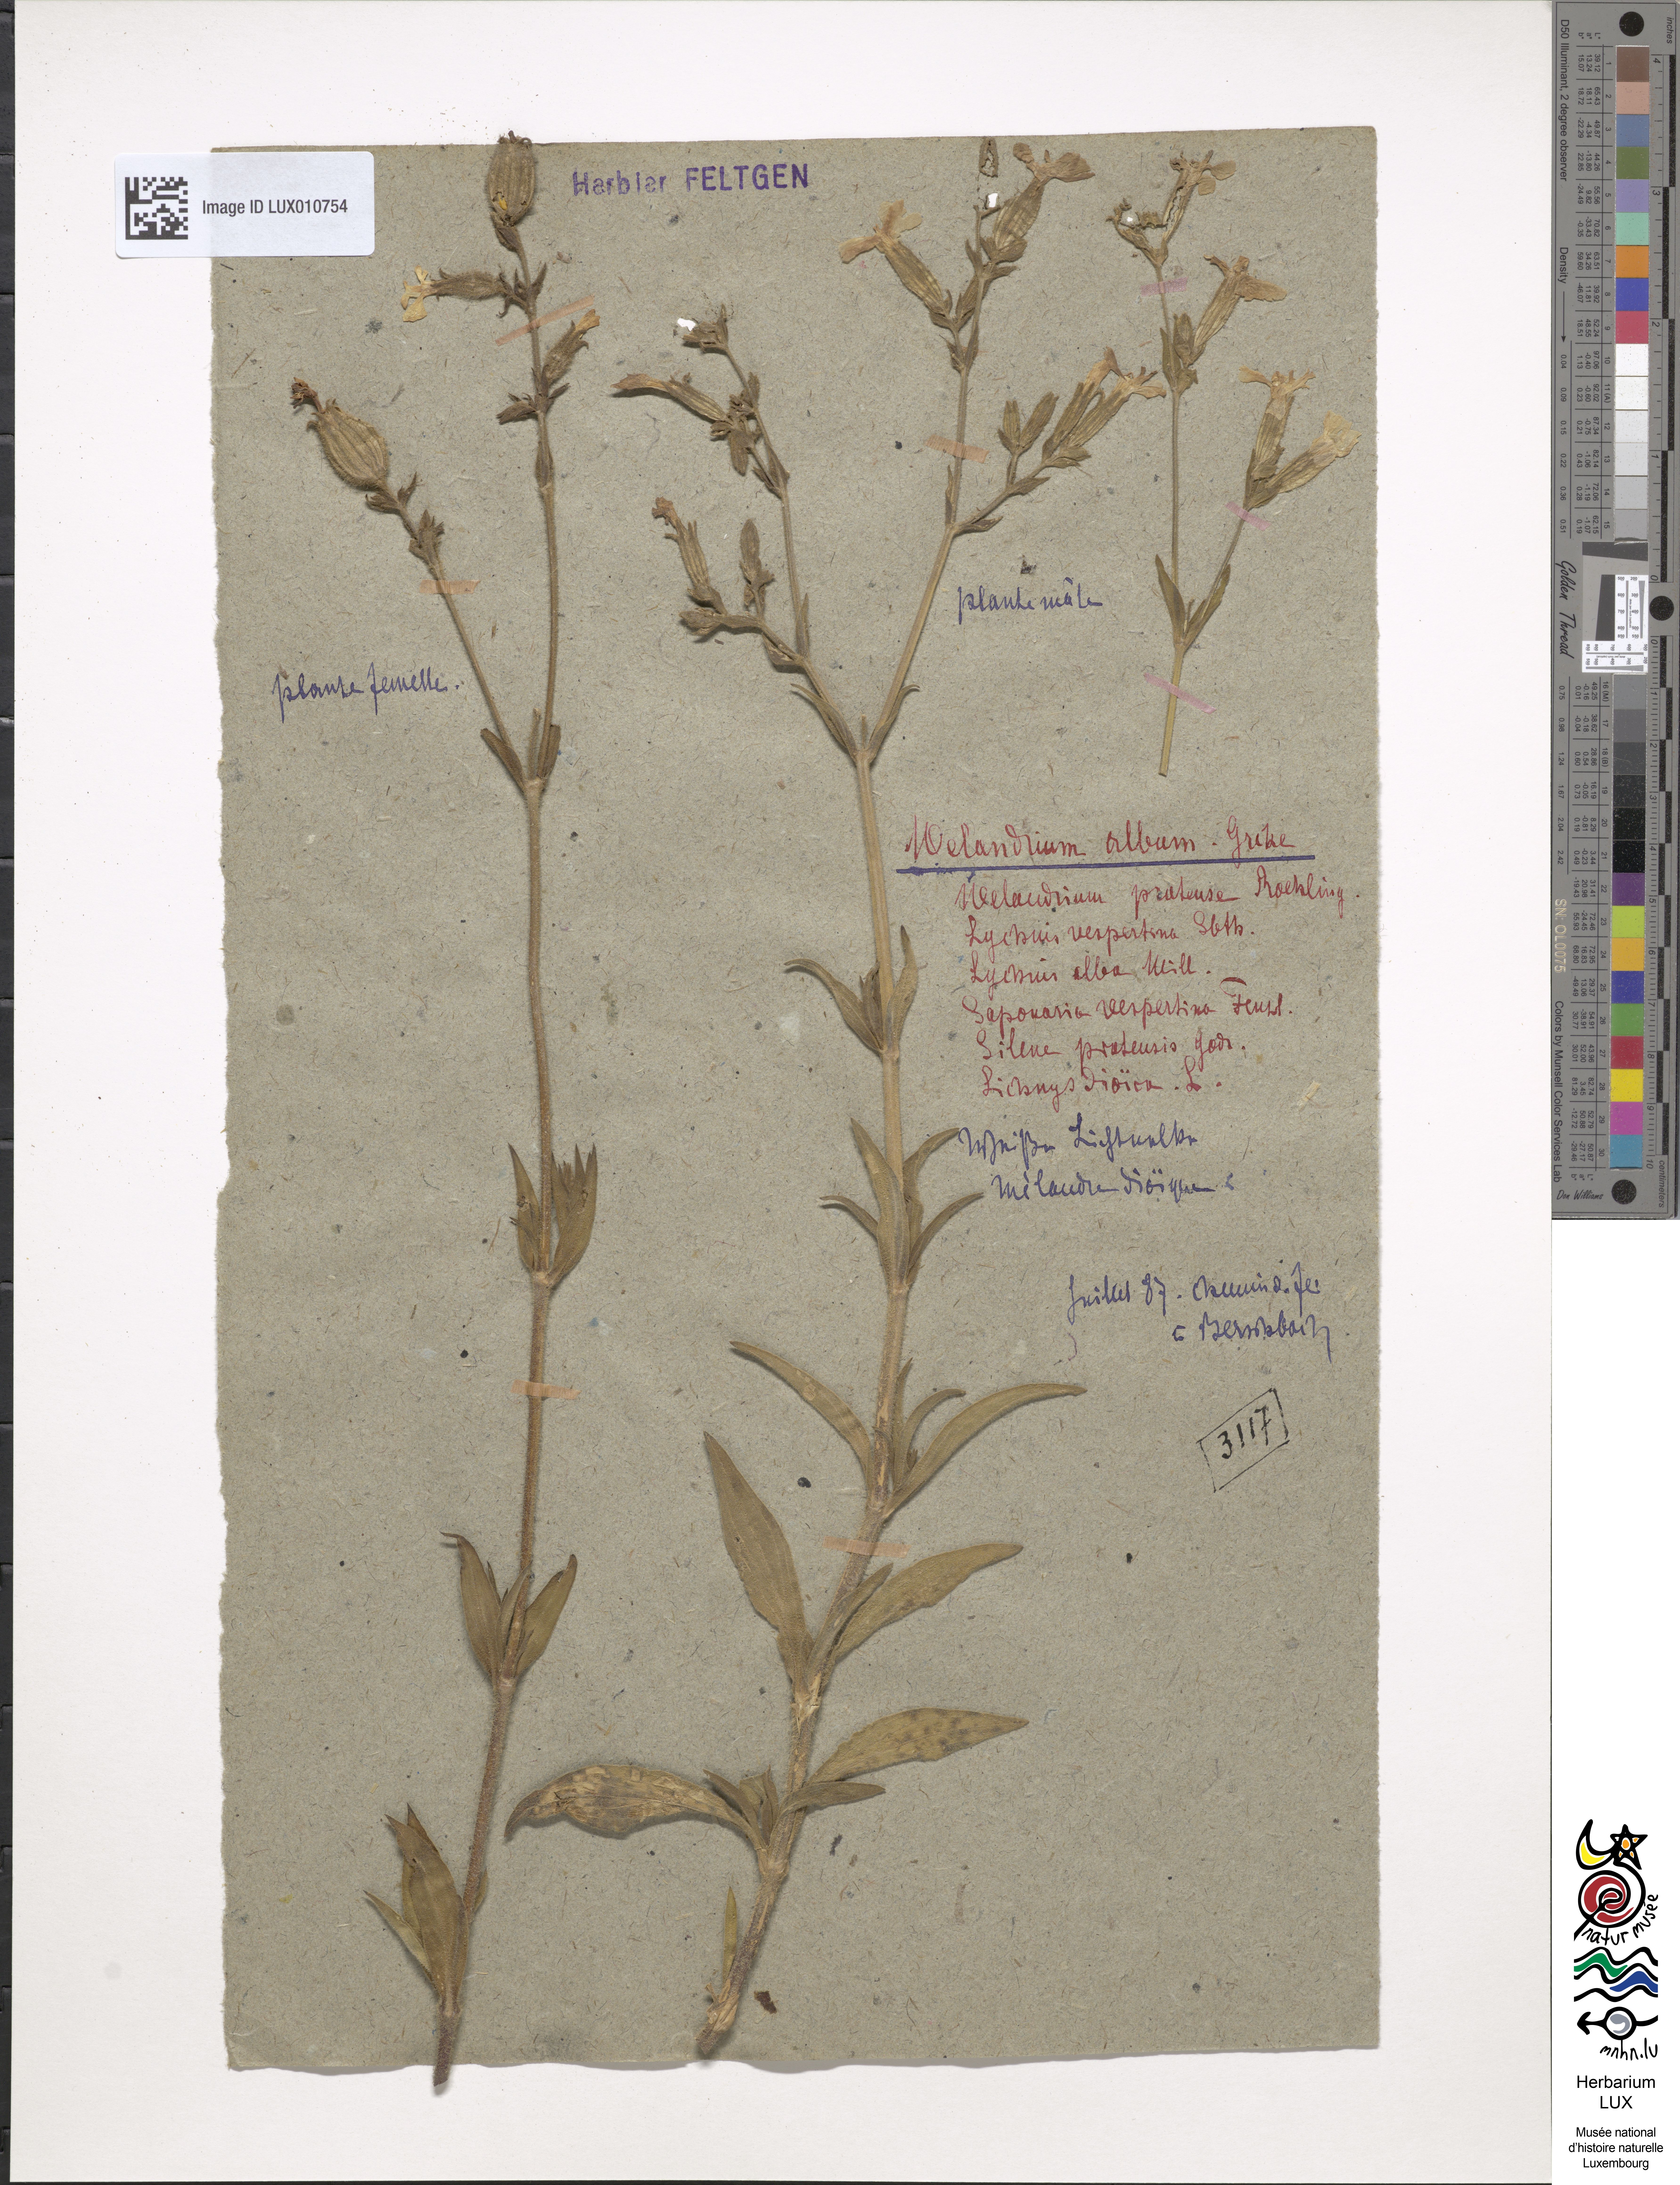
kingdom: Plantae
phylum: Tracheophyta
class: Magnoliopsida
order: Caryophyllales
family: Caryophyllaceae
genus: Silene
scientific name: Silene latifolia
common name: White campion
